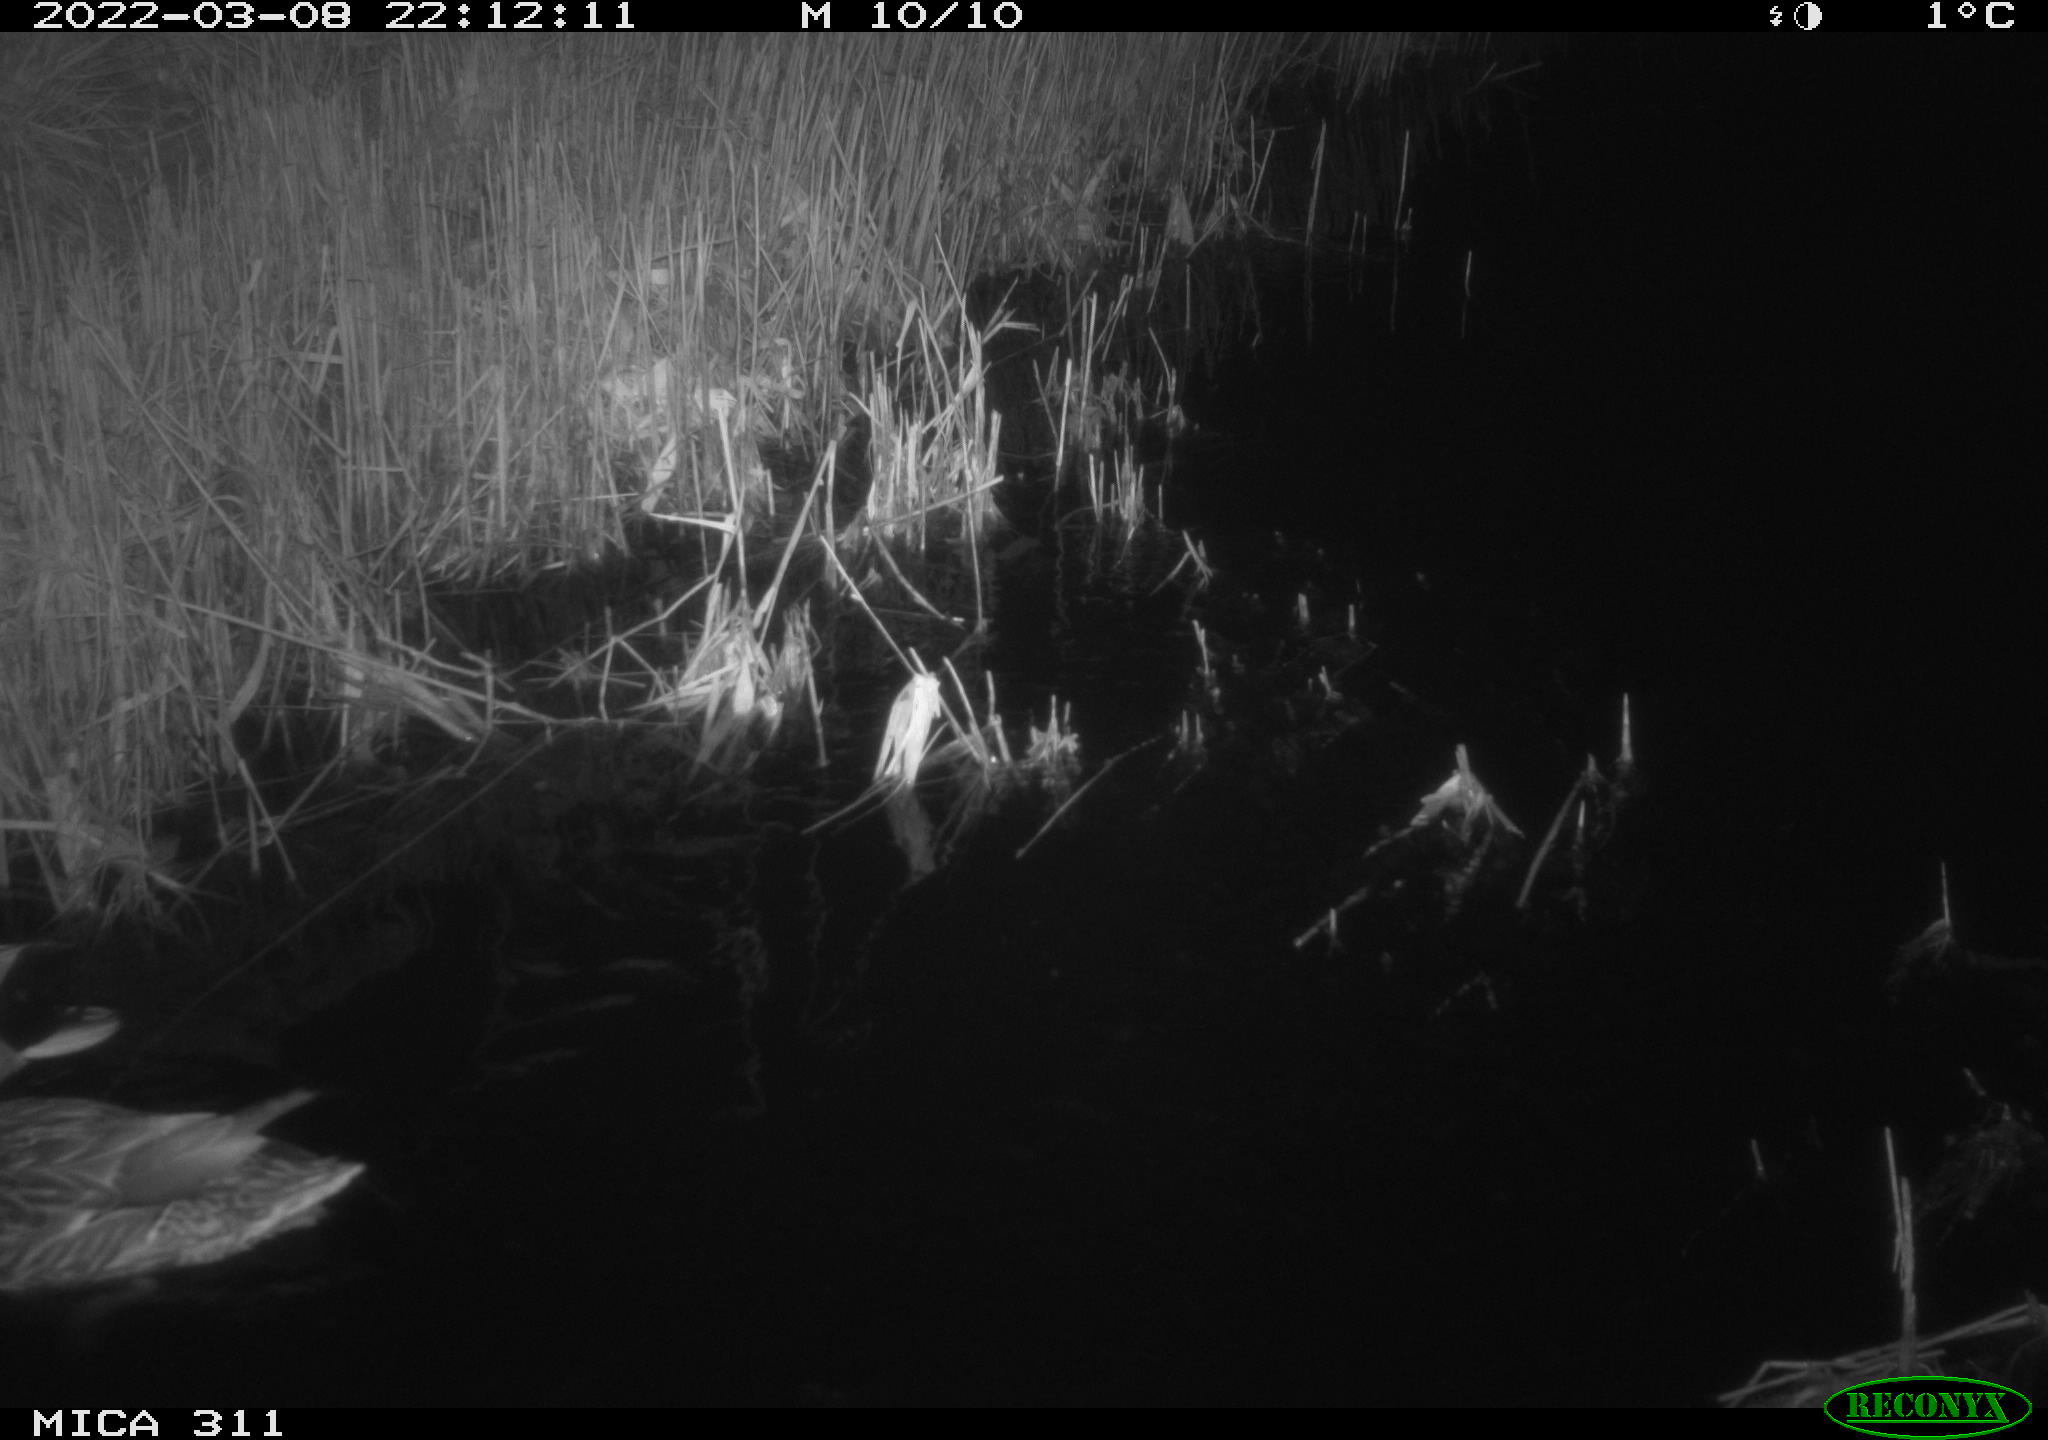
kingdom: Animalia
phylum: Chordata
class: Aves
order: Anseriformes
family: Anatidae
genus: Anas
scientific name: Anas
